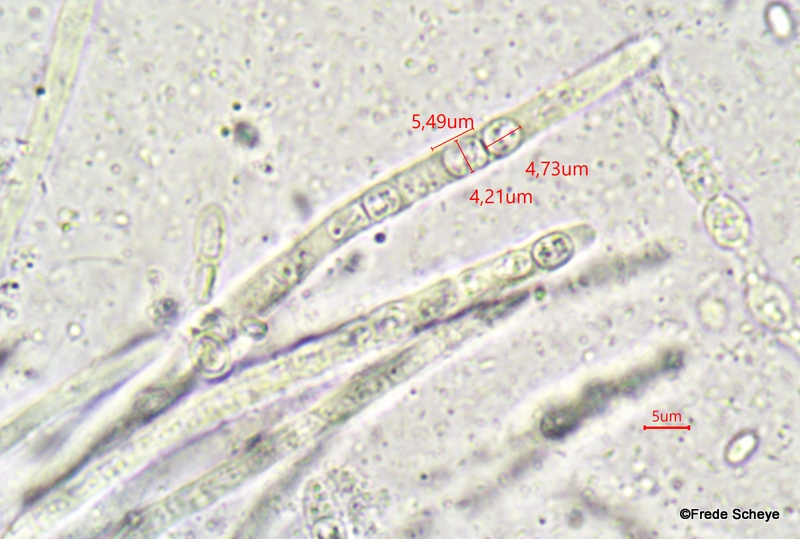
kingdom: Fungi
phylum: Ascomycota
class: Sordariomycetes
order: Hypocreales
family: Hypocreaceae
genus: Trichoderma
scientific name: Trichoderma europaeum
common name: rosabrun kødkerne
